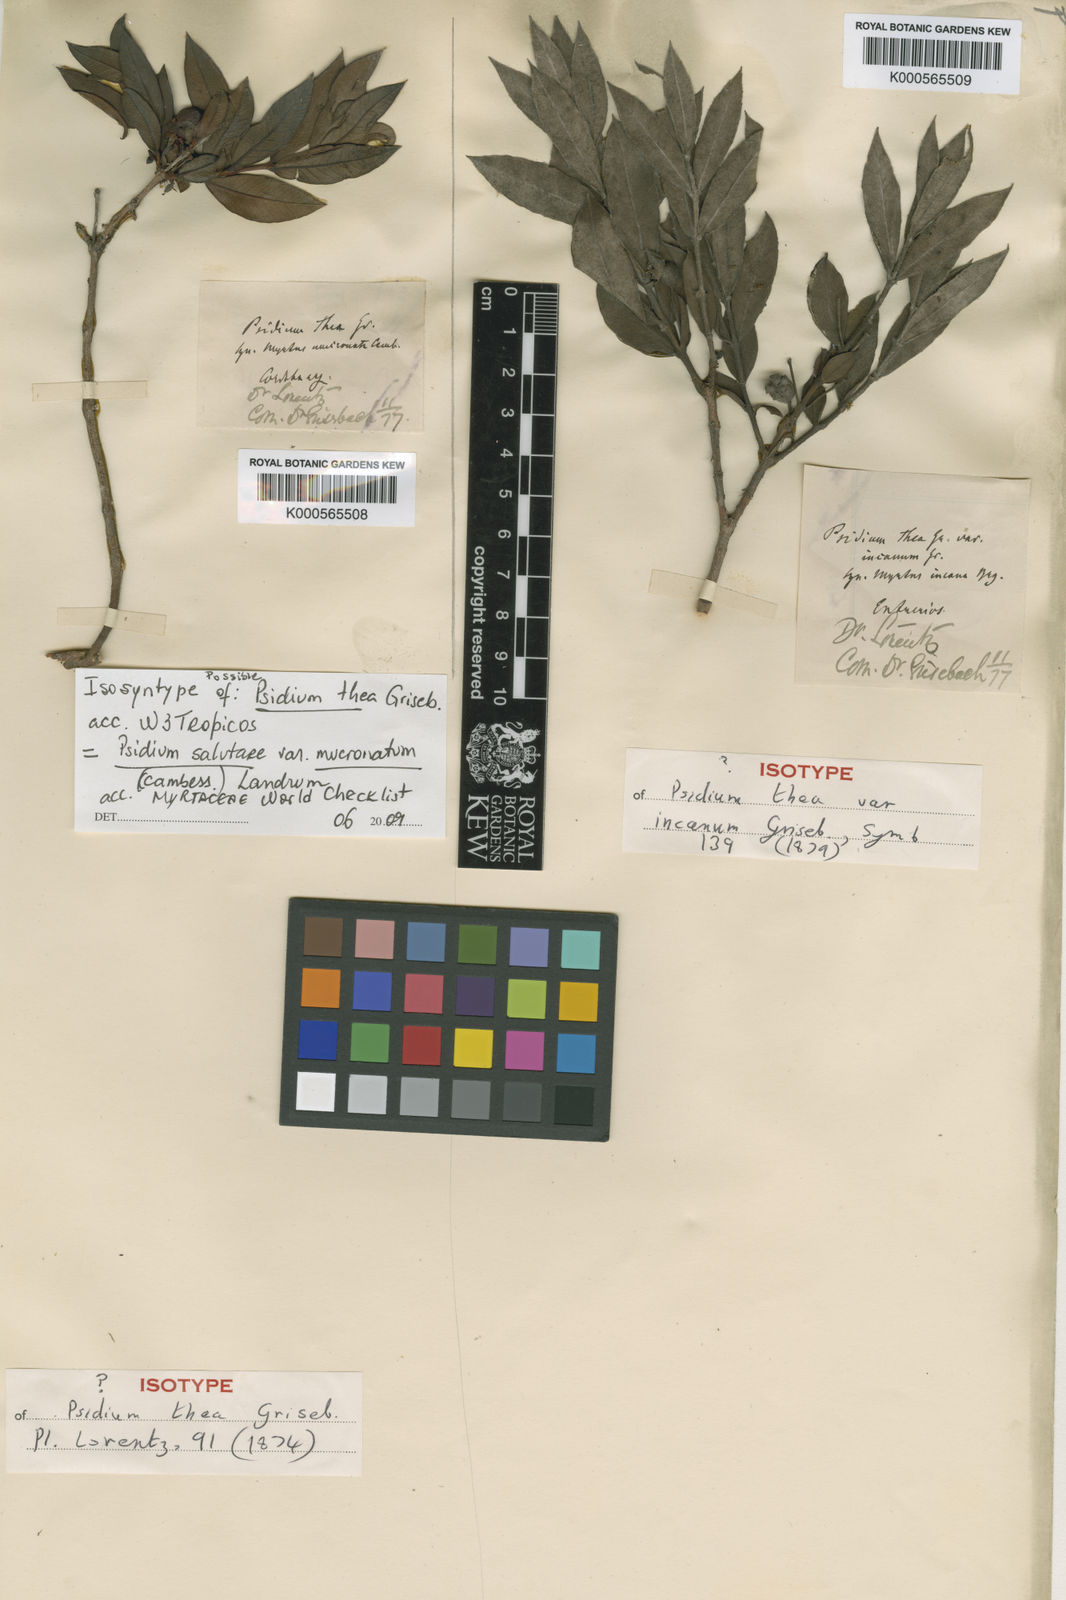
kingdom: Plantae
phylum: Tracheophyta
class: Magnoliopsida
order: Myrtales
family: Myrtaceae
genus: Psidium
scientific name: Psidium salutare
